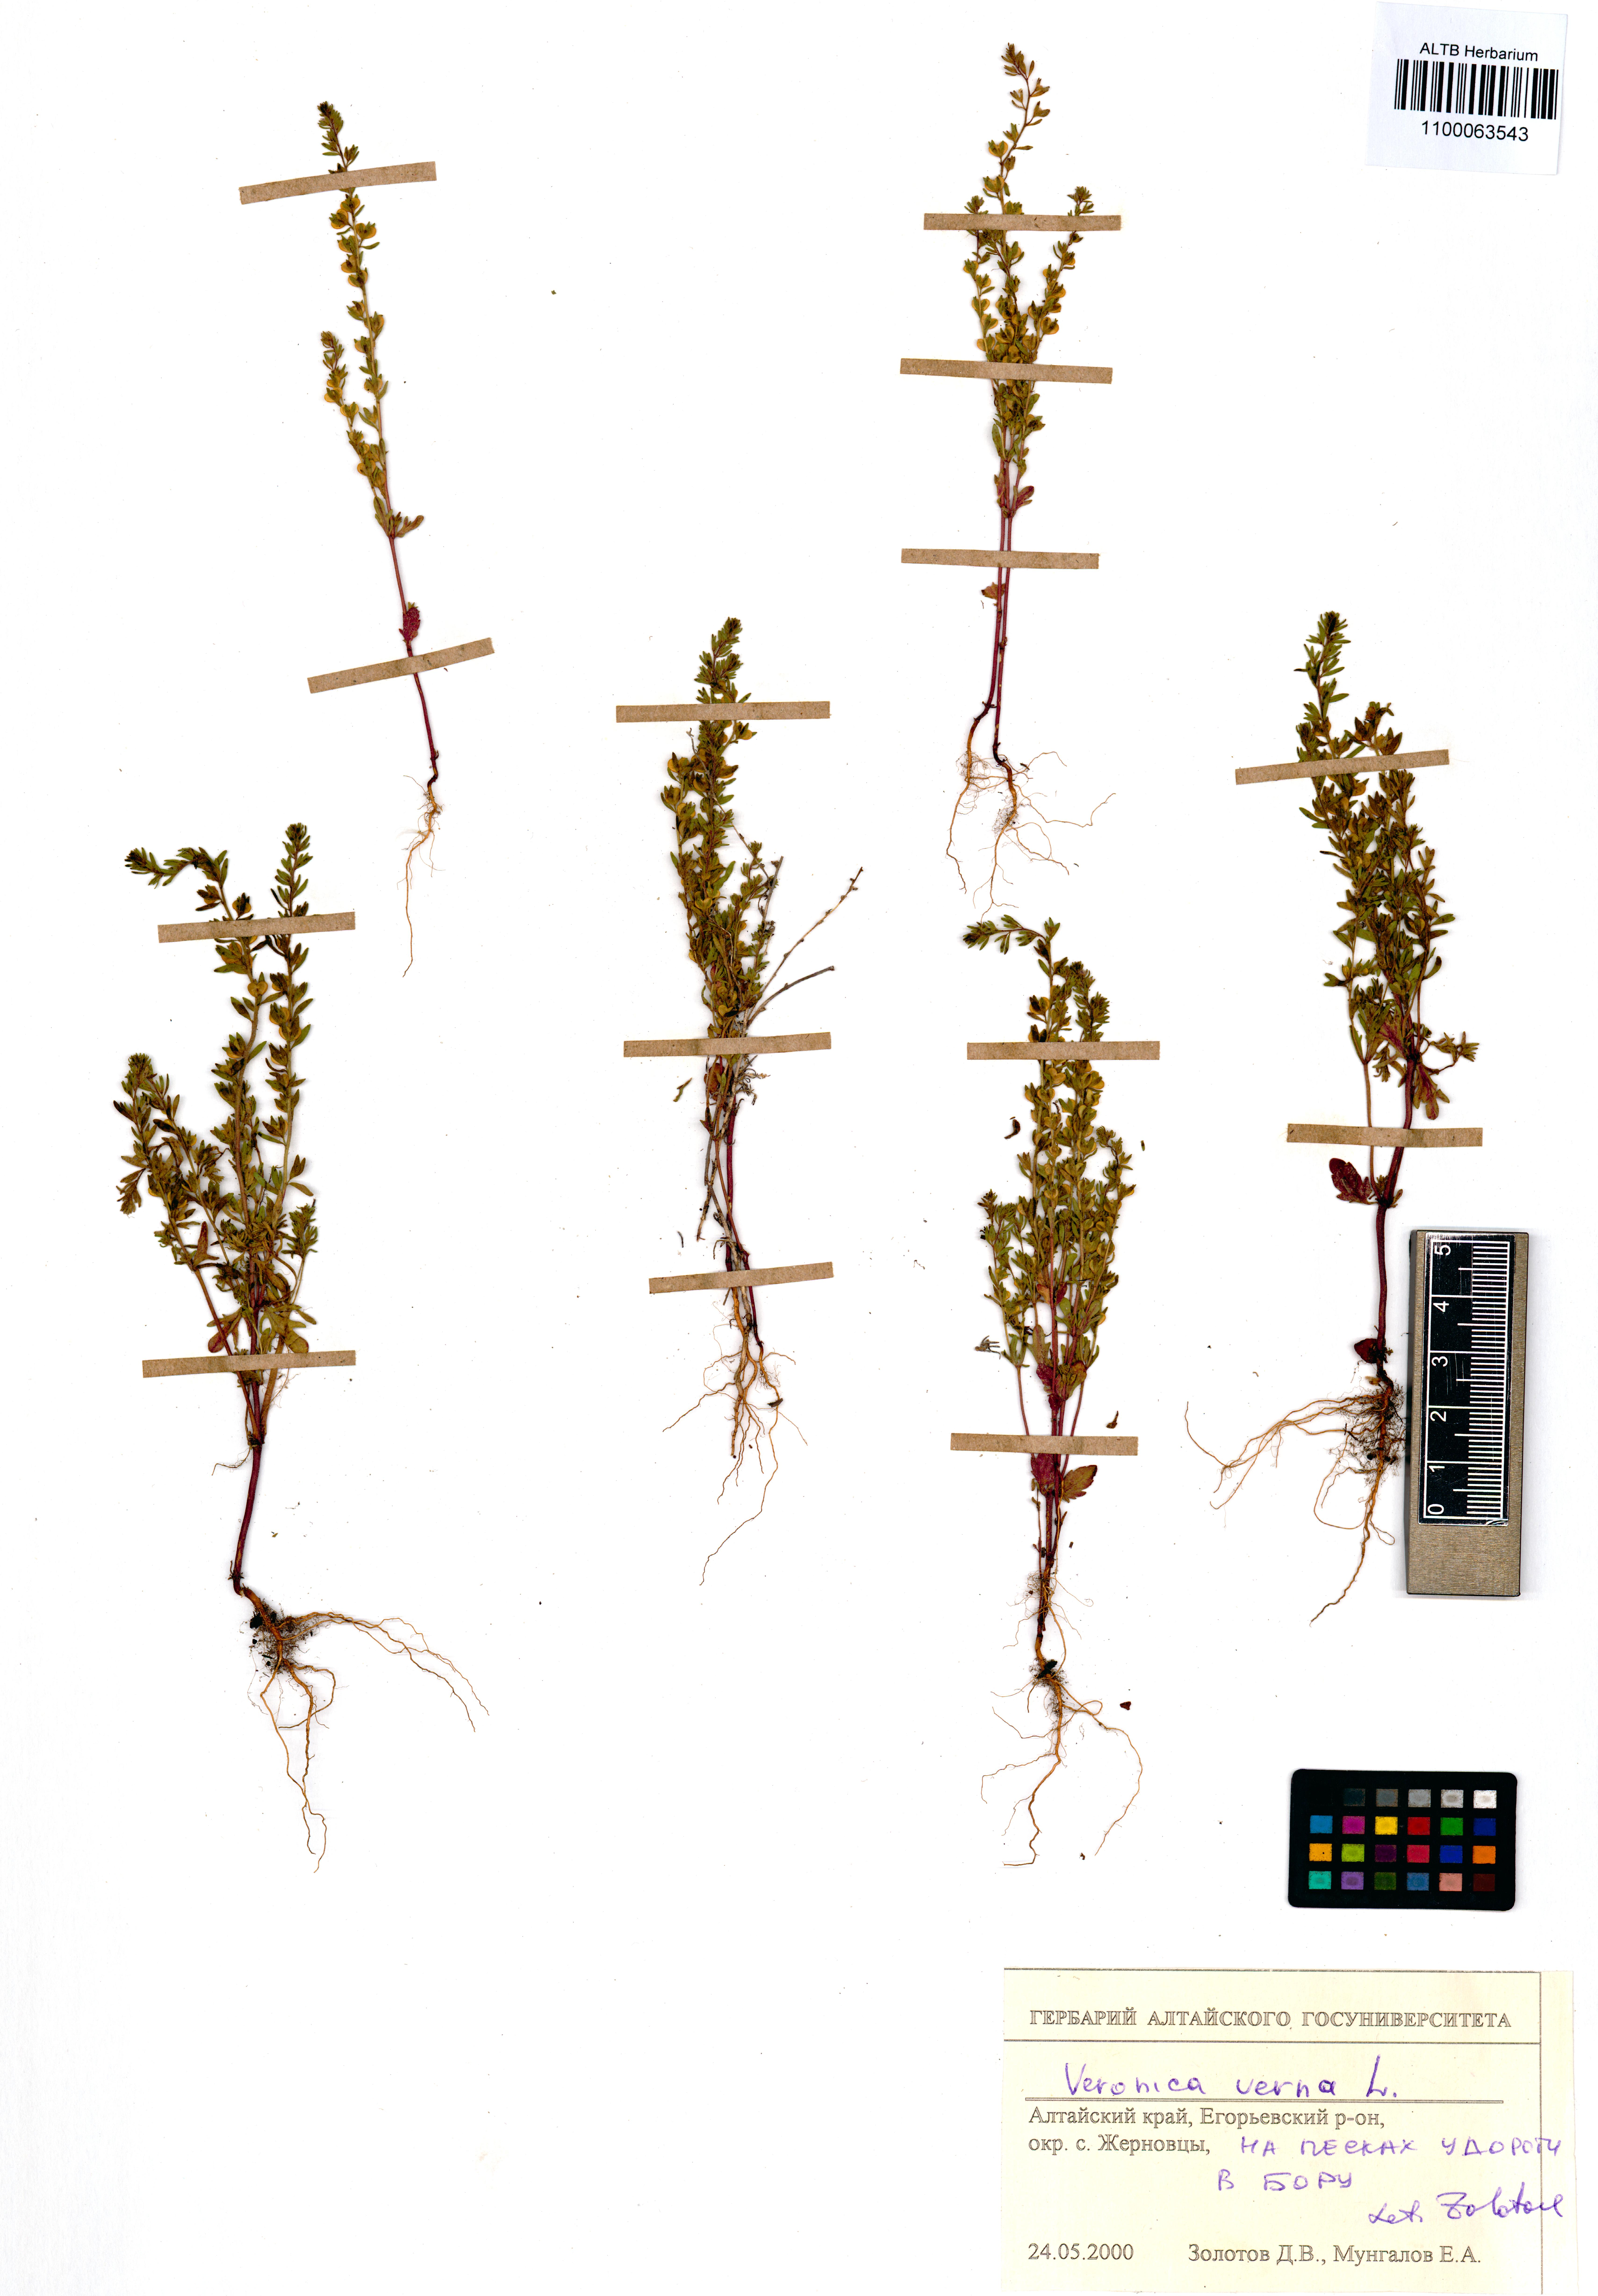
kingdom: Plantae
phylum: Tracheophyta
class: Magnoliopsida
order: Lamiales
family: Plantaginaceae
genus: Veronica
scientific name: Veronica verna
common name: Spring speedwell
